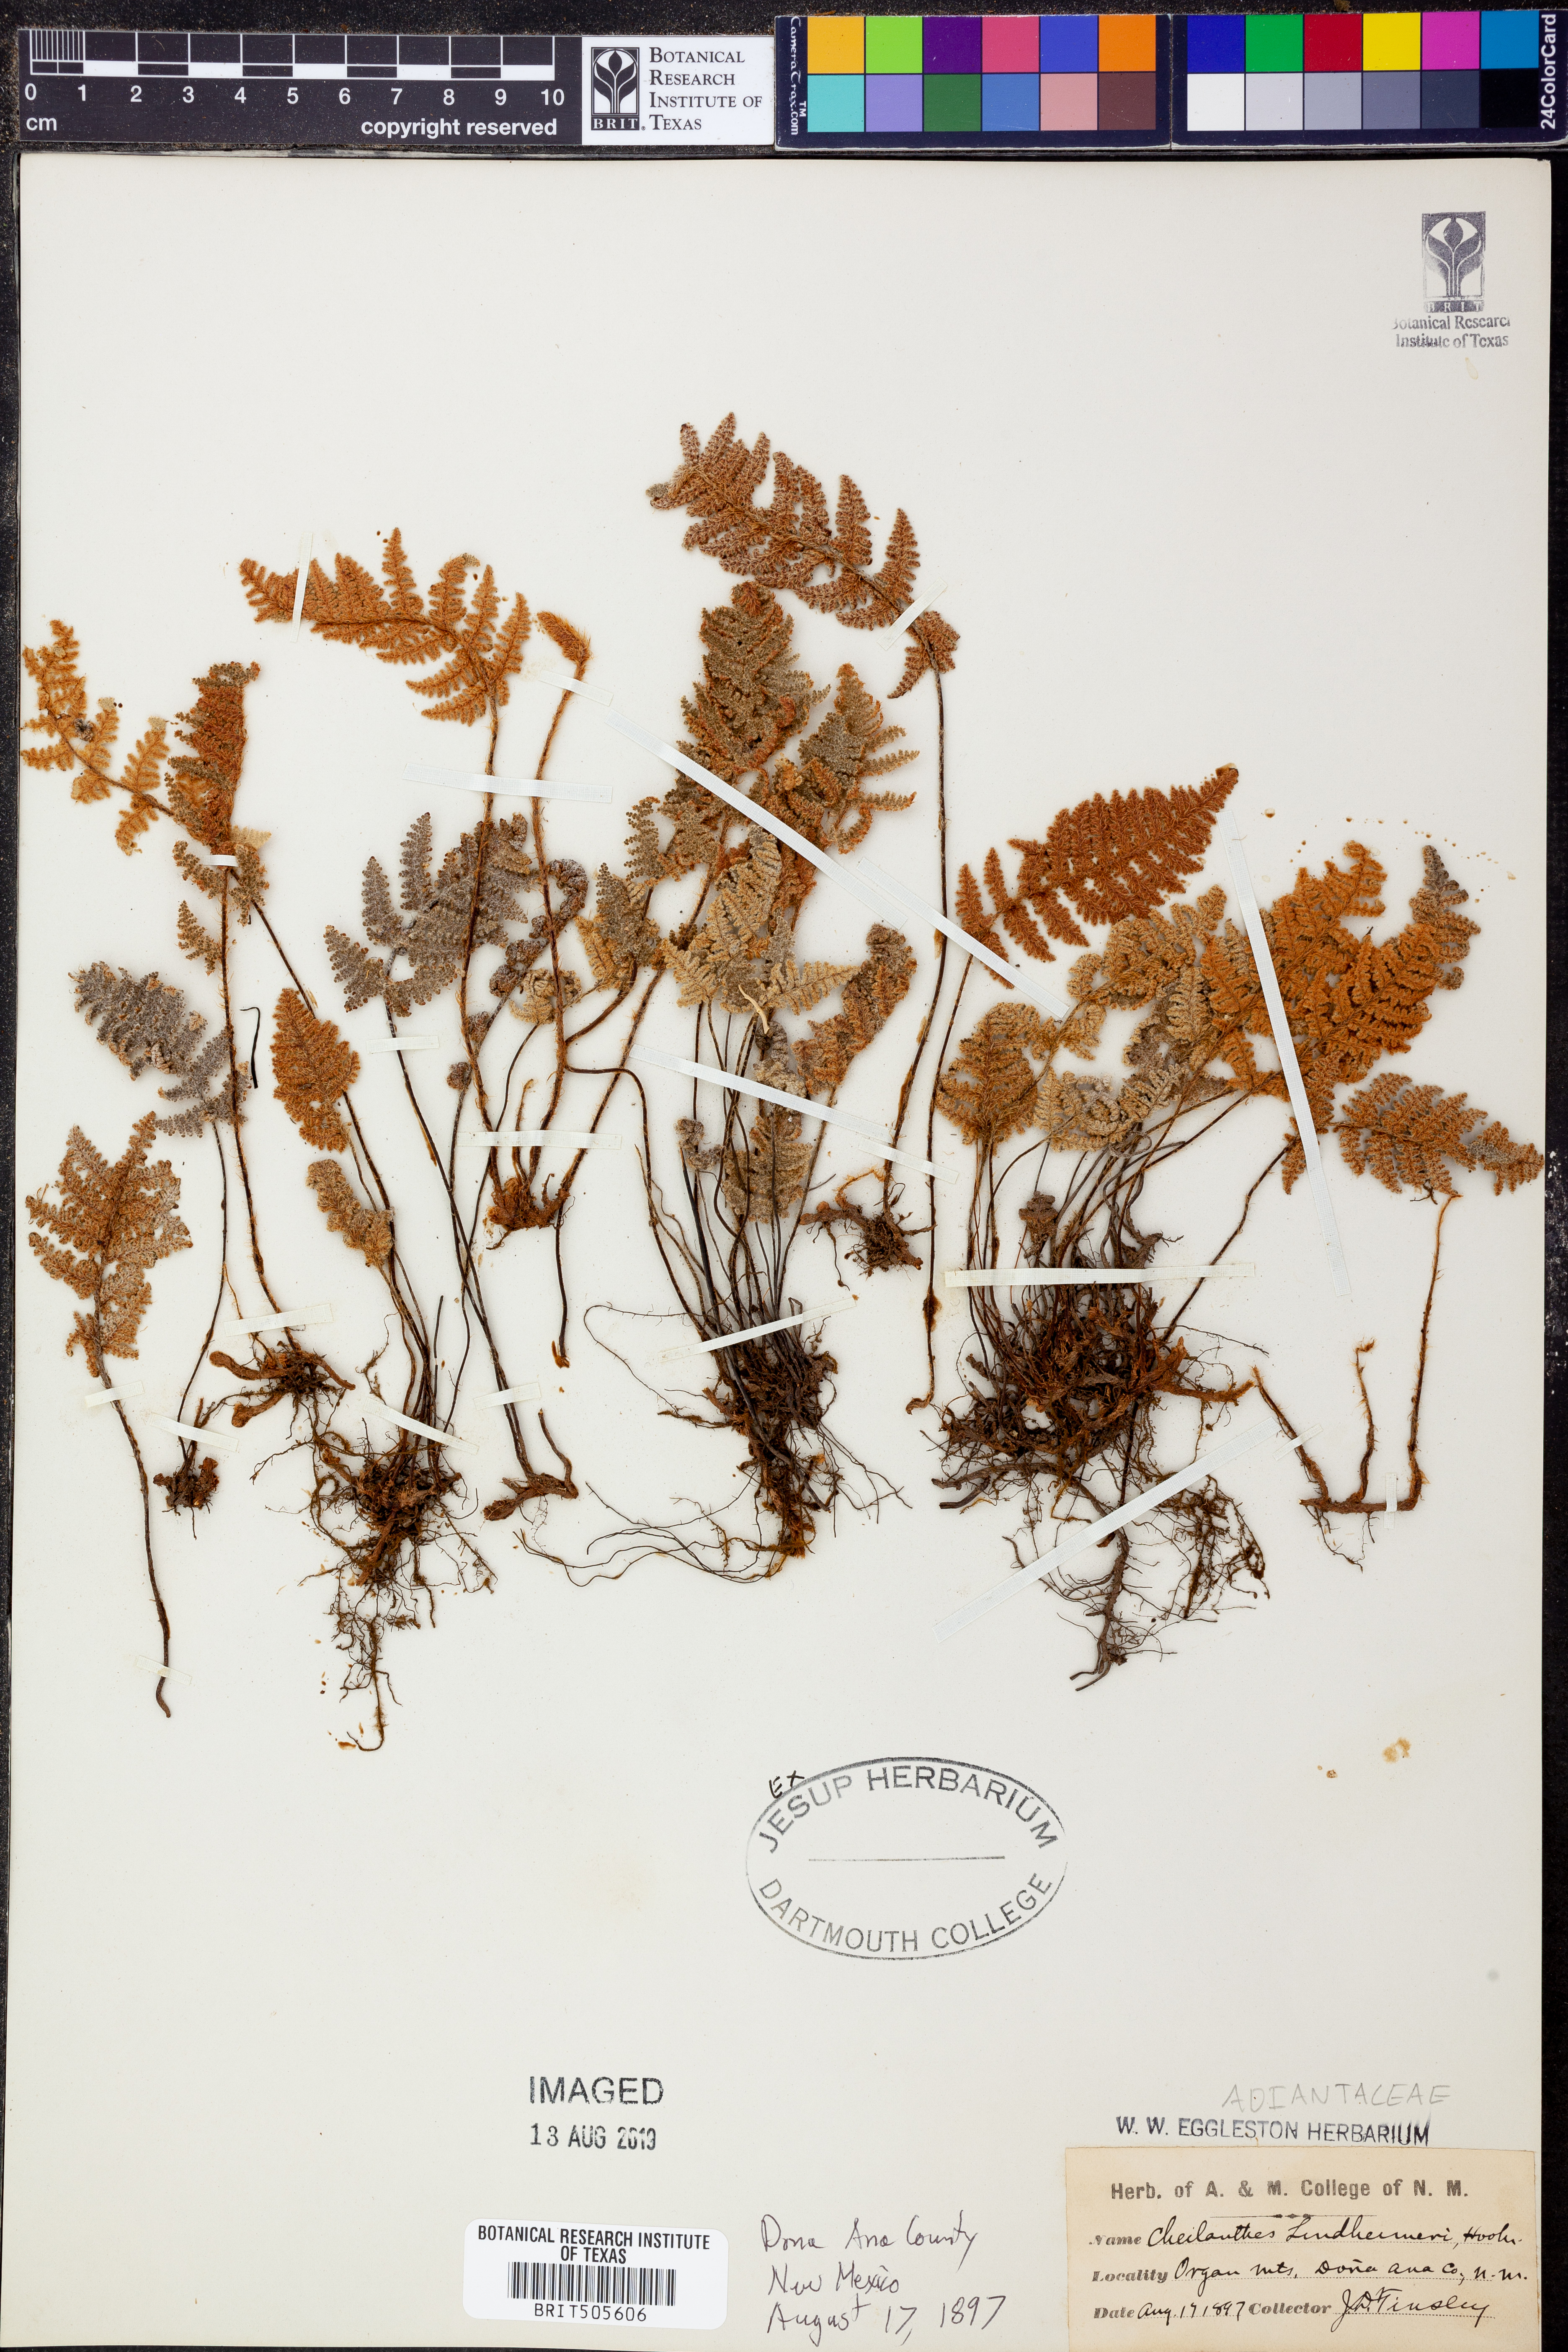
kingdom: Plantae
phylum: Tracheophyta
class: Polypodiopsida
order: Polypodiales
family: Pteridaceae
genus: Myriopteris
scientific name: Myriopteris lindheimeri
